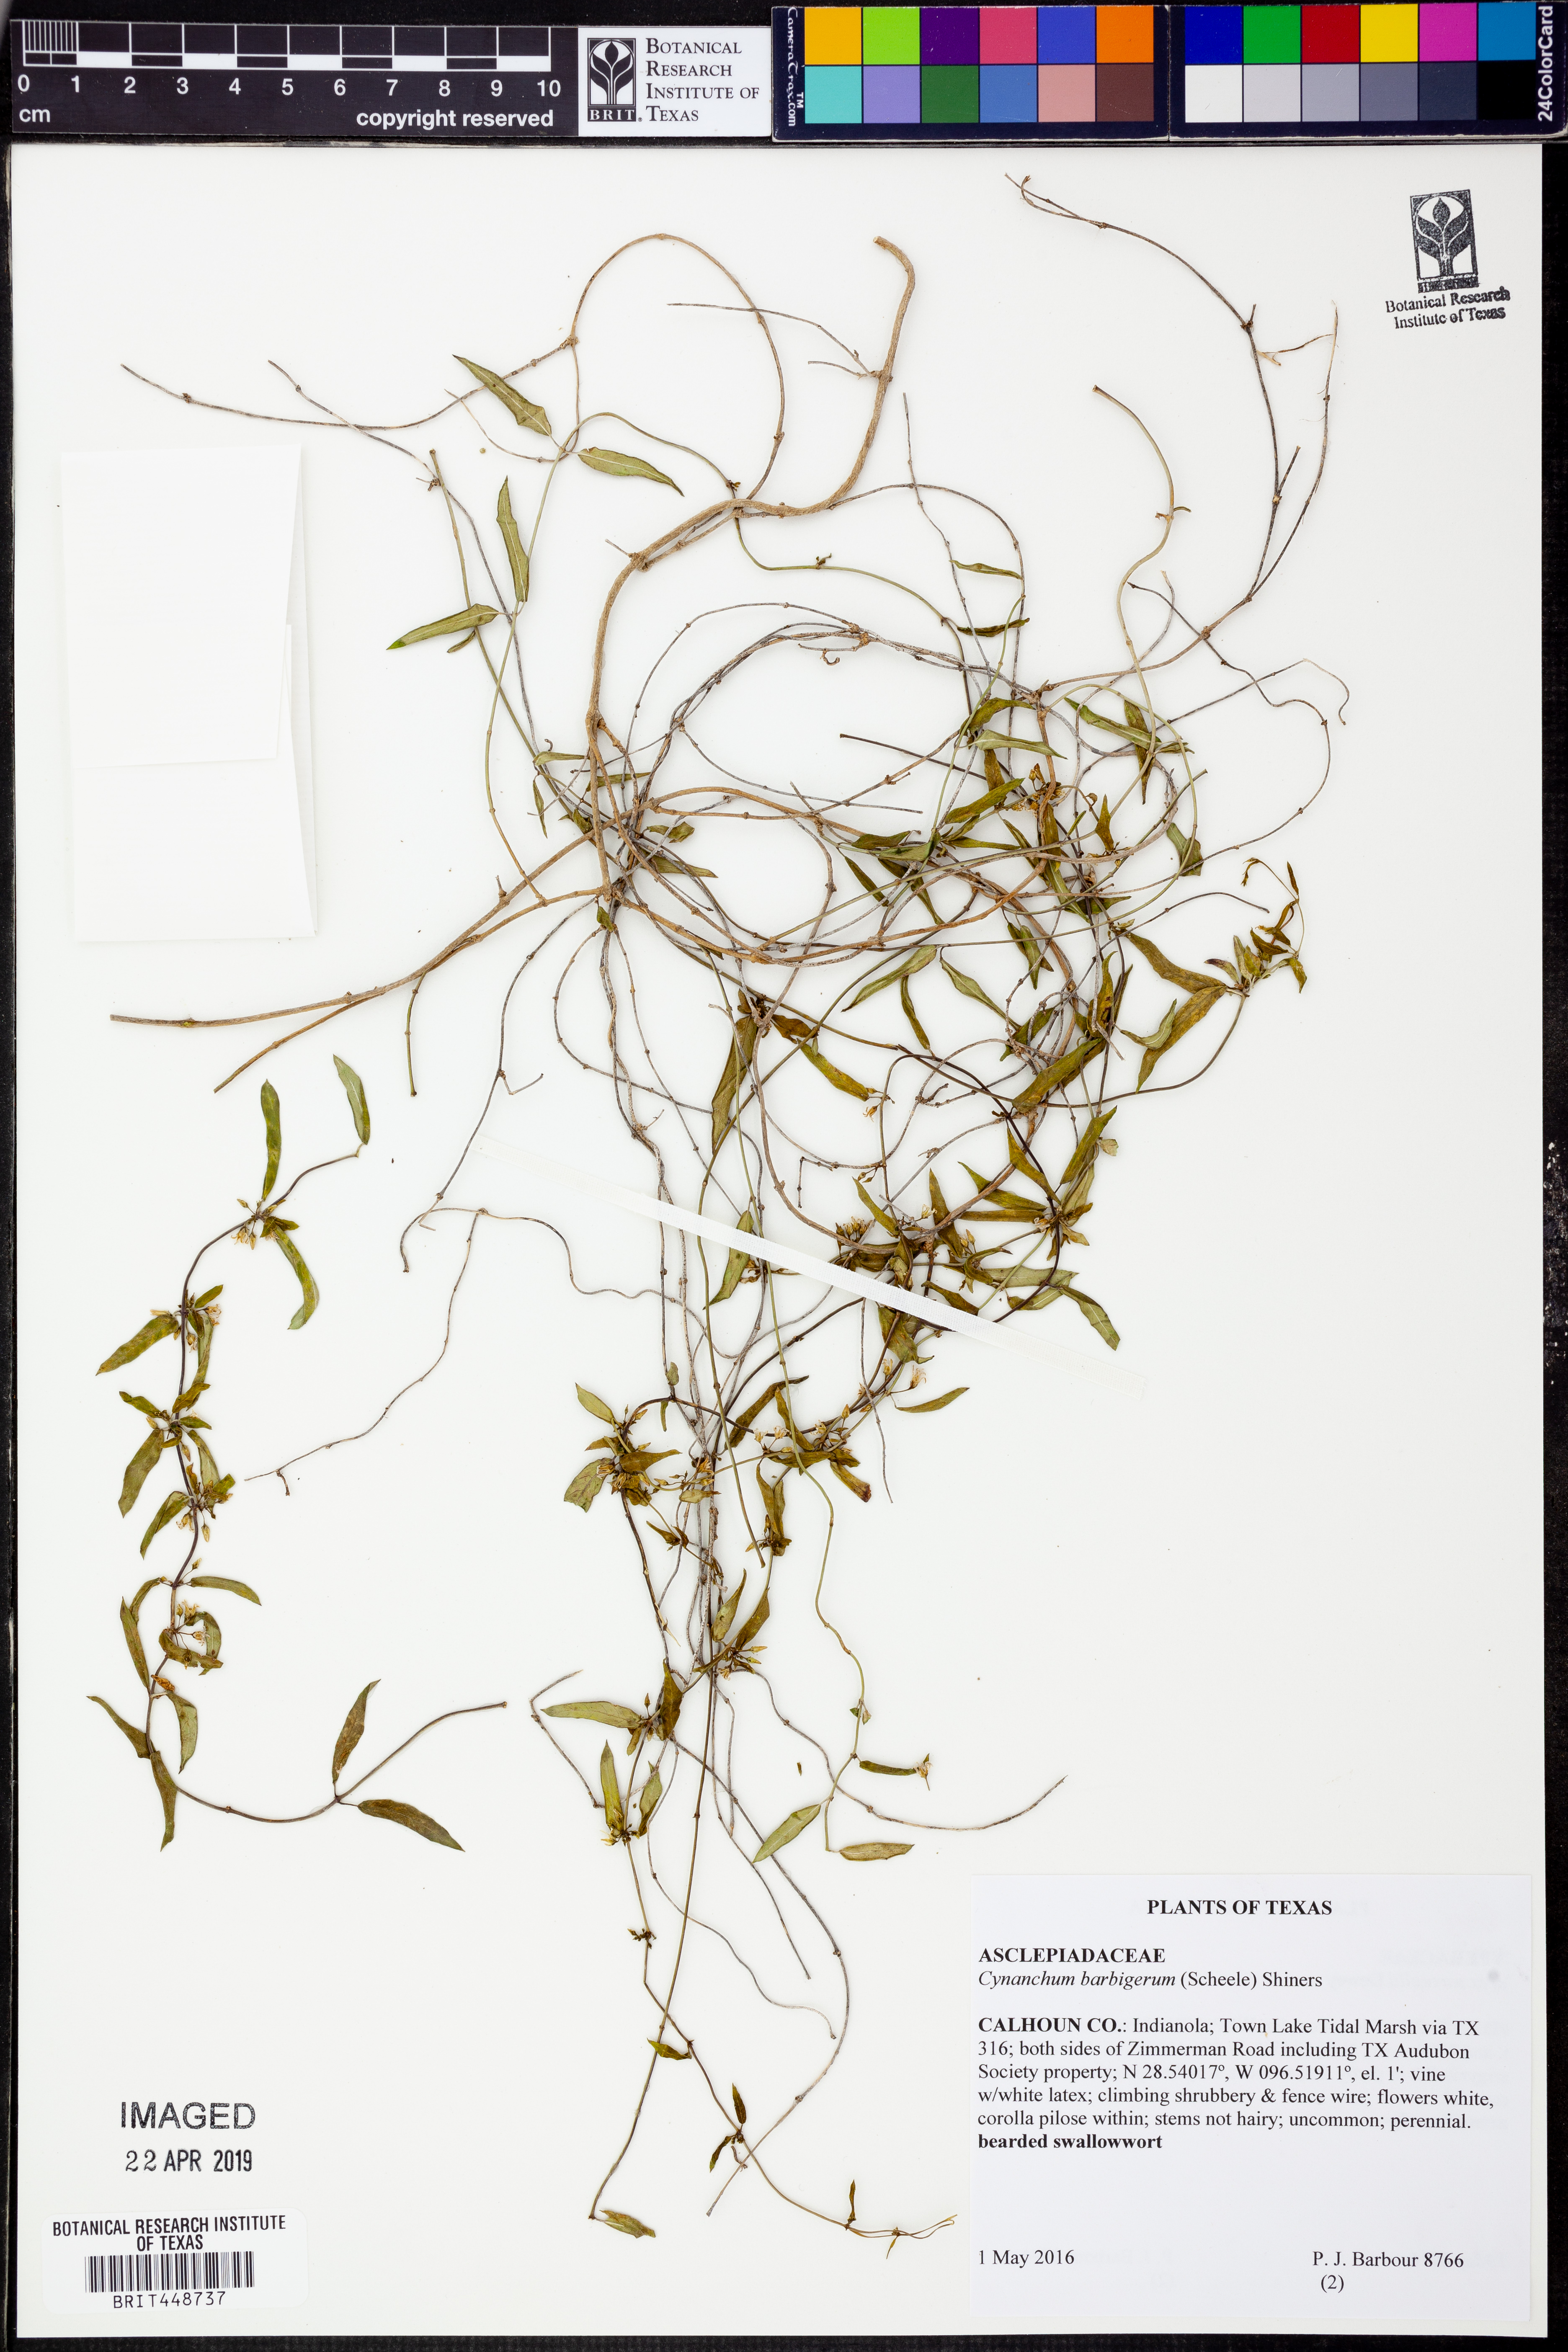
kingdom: Plantae
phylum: Tracheophyta
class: Magnoliopsida
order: Gentianales
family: Apocynaceae
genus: Metastelma
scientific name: Metastelma barbigerum
